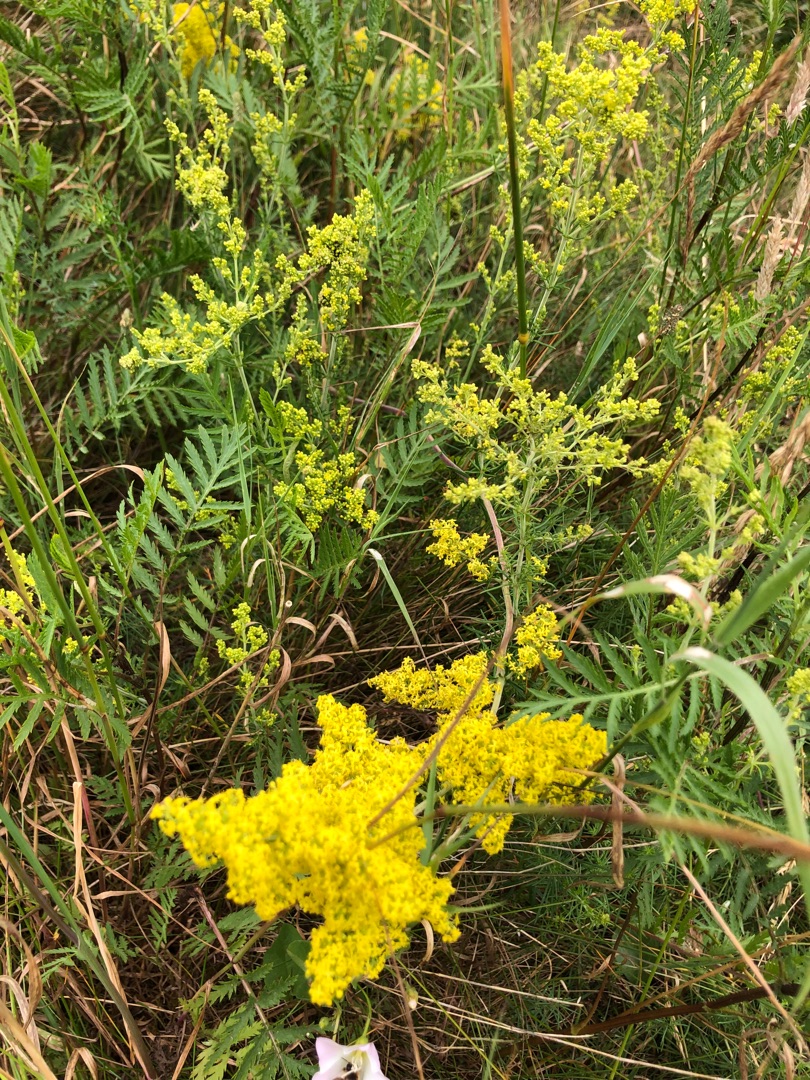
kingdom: Plantae
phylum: Tracheophyta
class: Magnoliopsida
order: Gentianales
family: Rubiaceae
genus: Galium
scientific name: Galium verum
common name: Gul snerre
